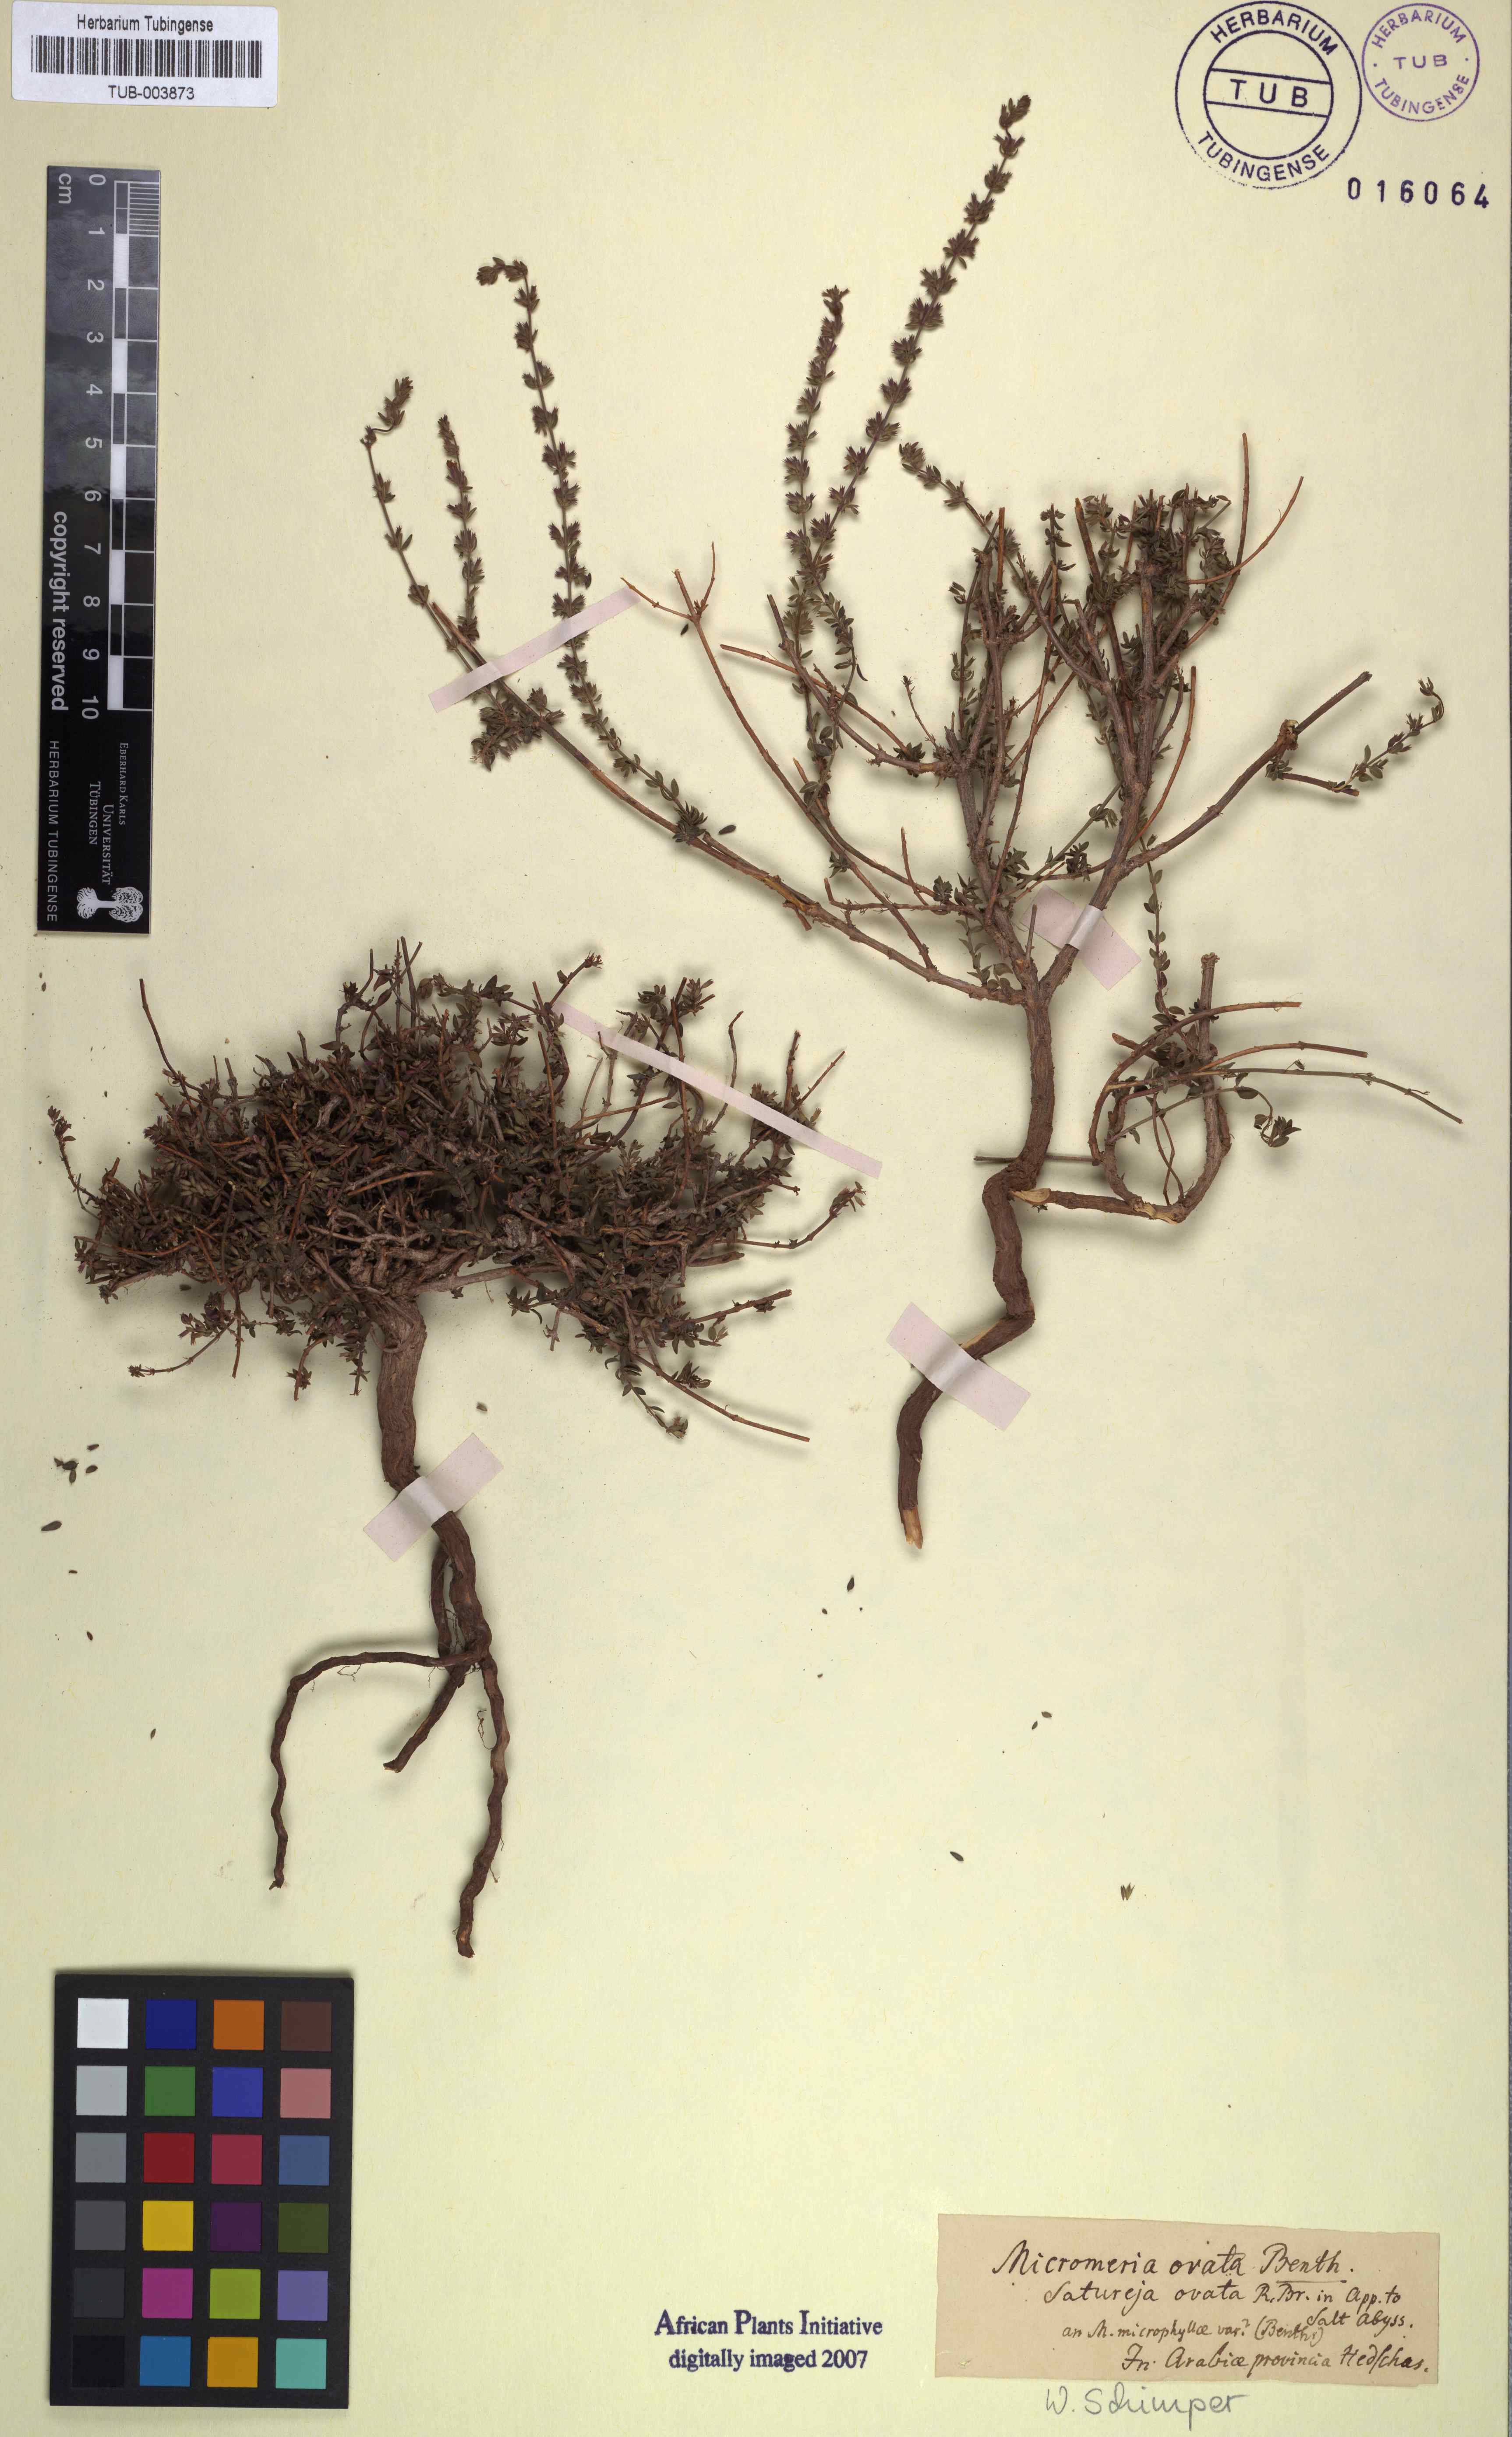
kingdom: Plantae
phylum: Tracheophyta
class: Magnoliopsida
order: Lamiales
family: Lamiaceae
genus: Micromeria
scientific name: Micromeria imbricata
